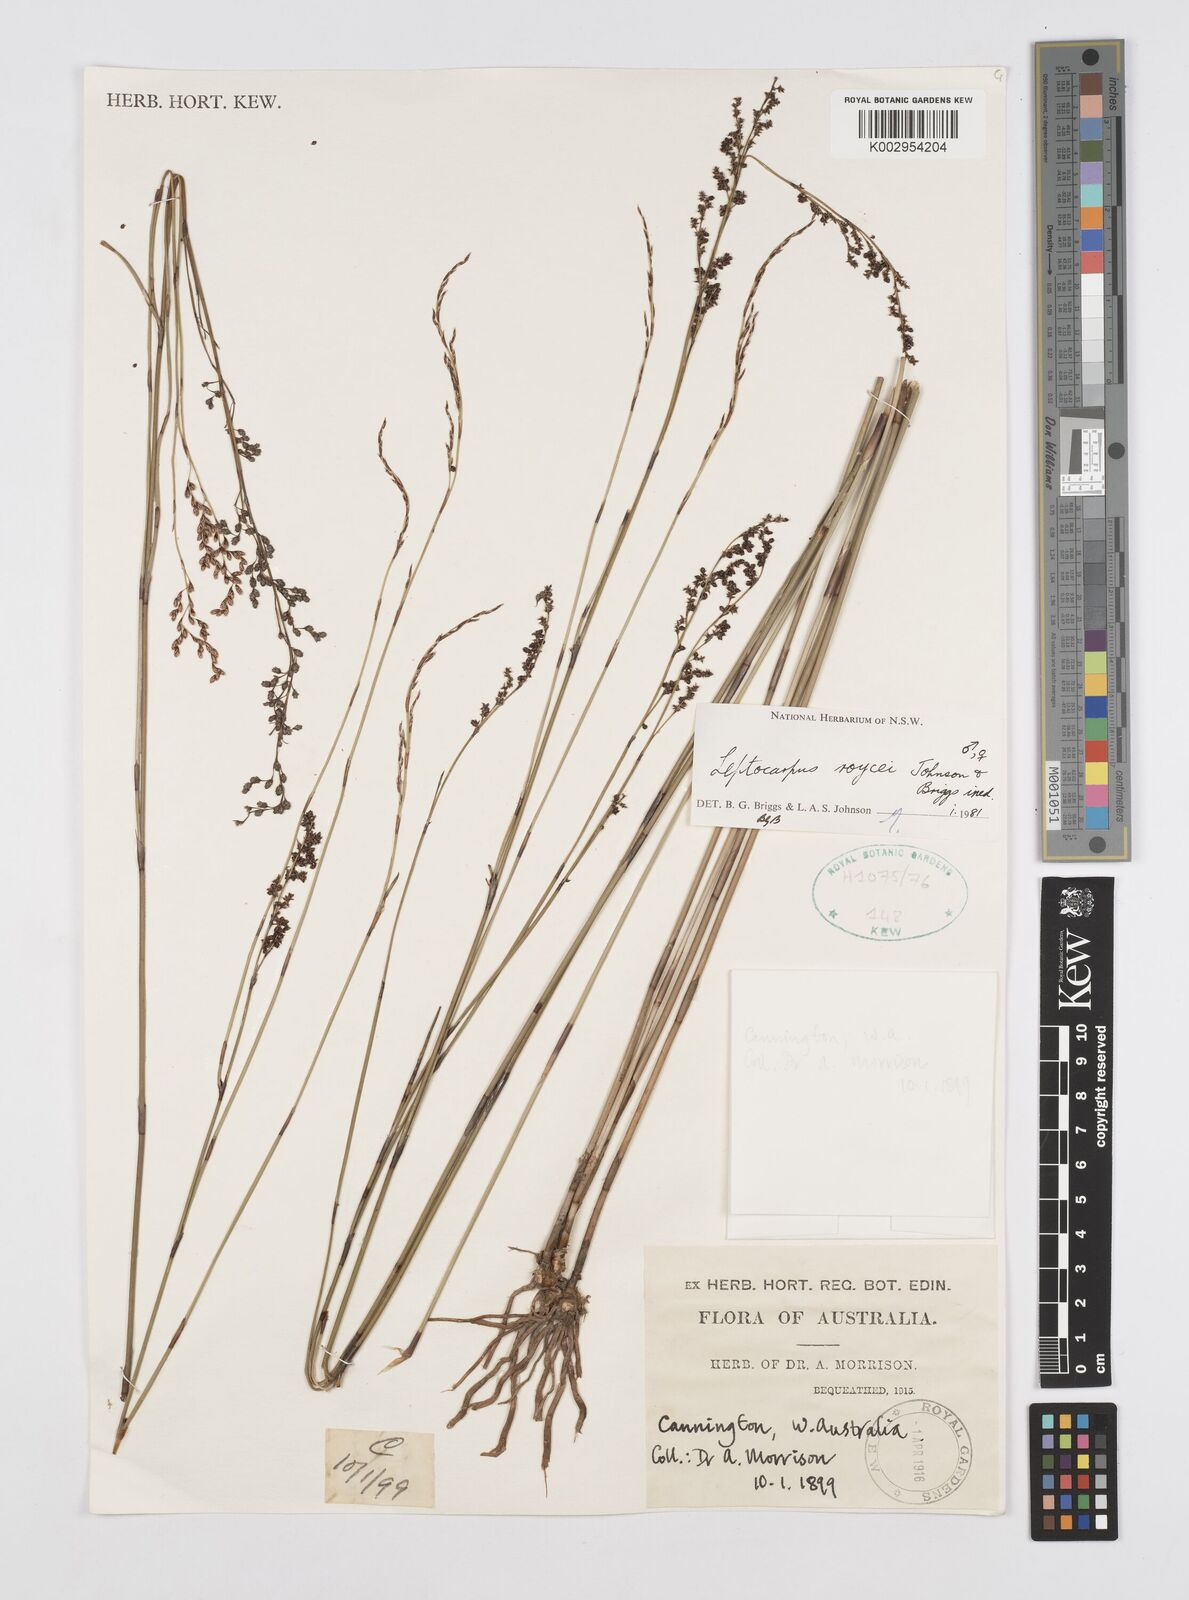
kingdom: Plantae
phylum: Tracheophyta
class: Liliopsida
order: Poales
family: Restionaceae
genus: Leptocarpus
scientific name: Leptocarpus roycei
